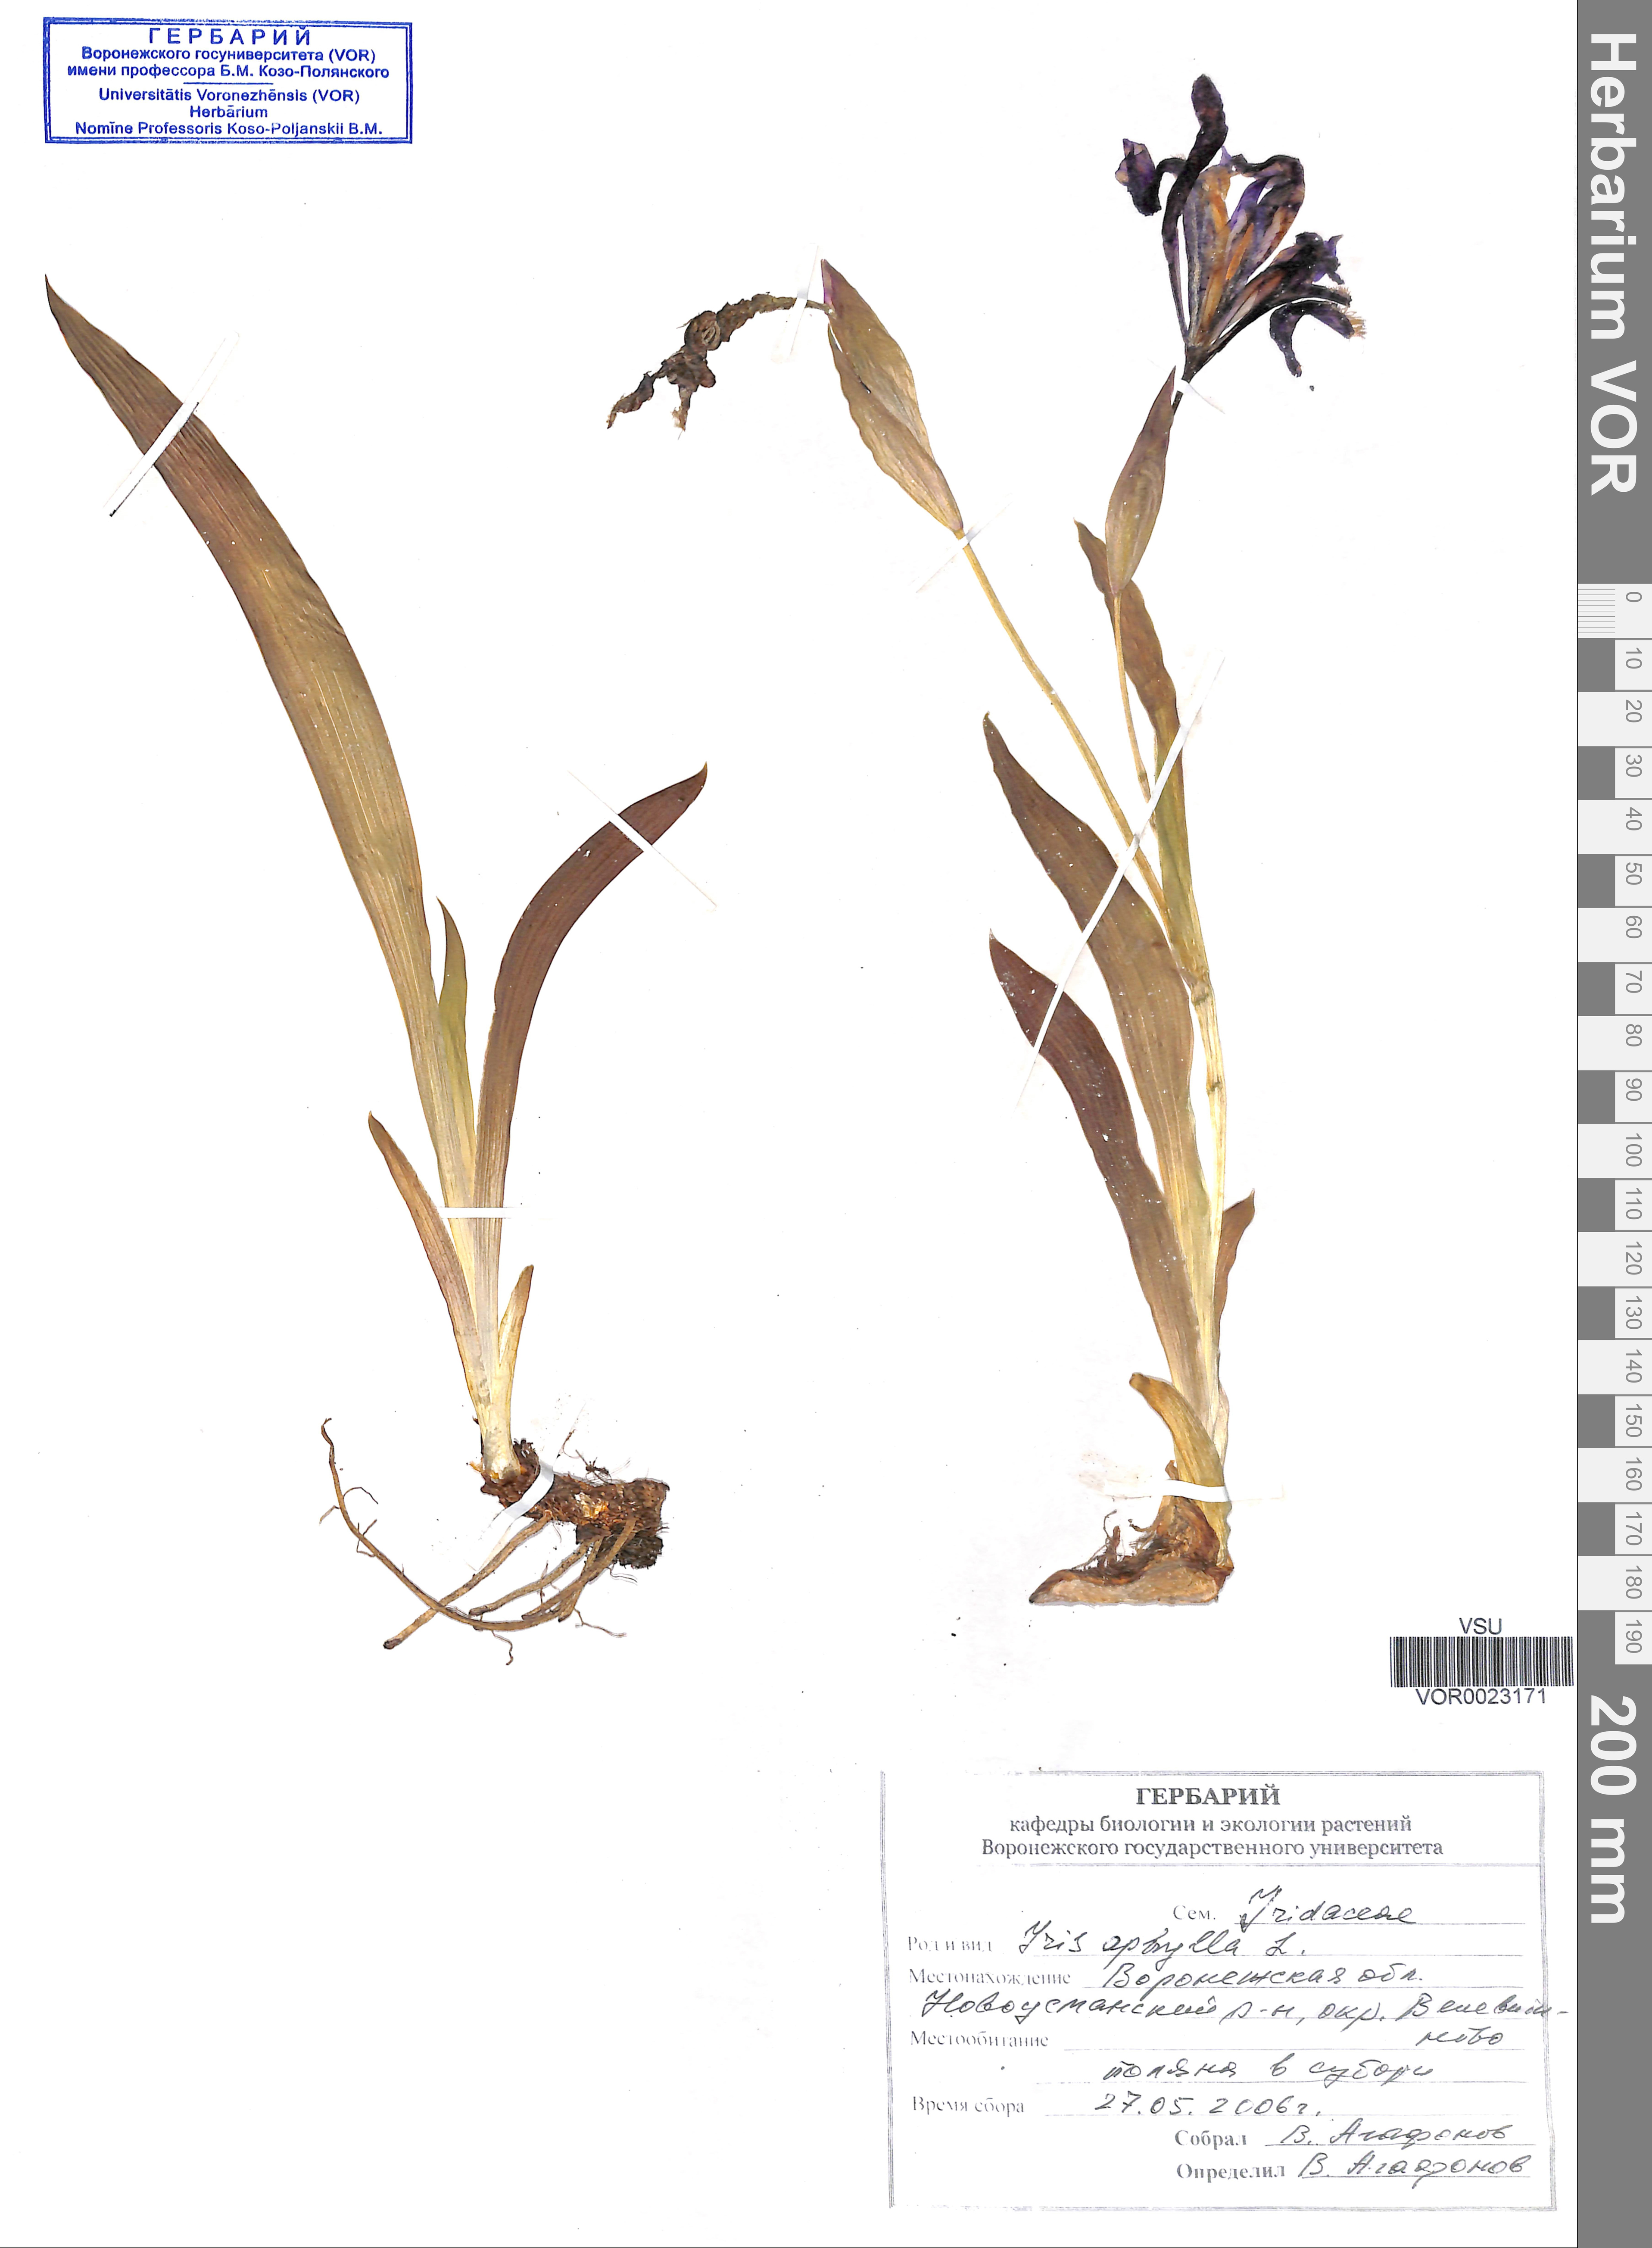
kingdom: Plantae
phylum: Tracheophyta
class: Liliopsida
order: Asparagales
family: Iridaceae
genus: Iris
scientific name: Iris aphylla
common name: Stool iris
